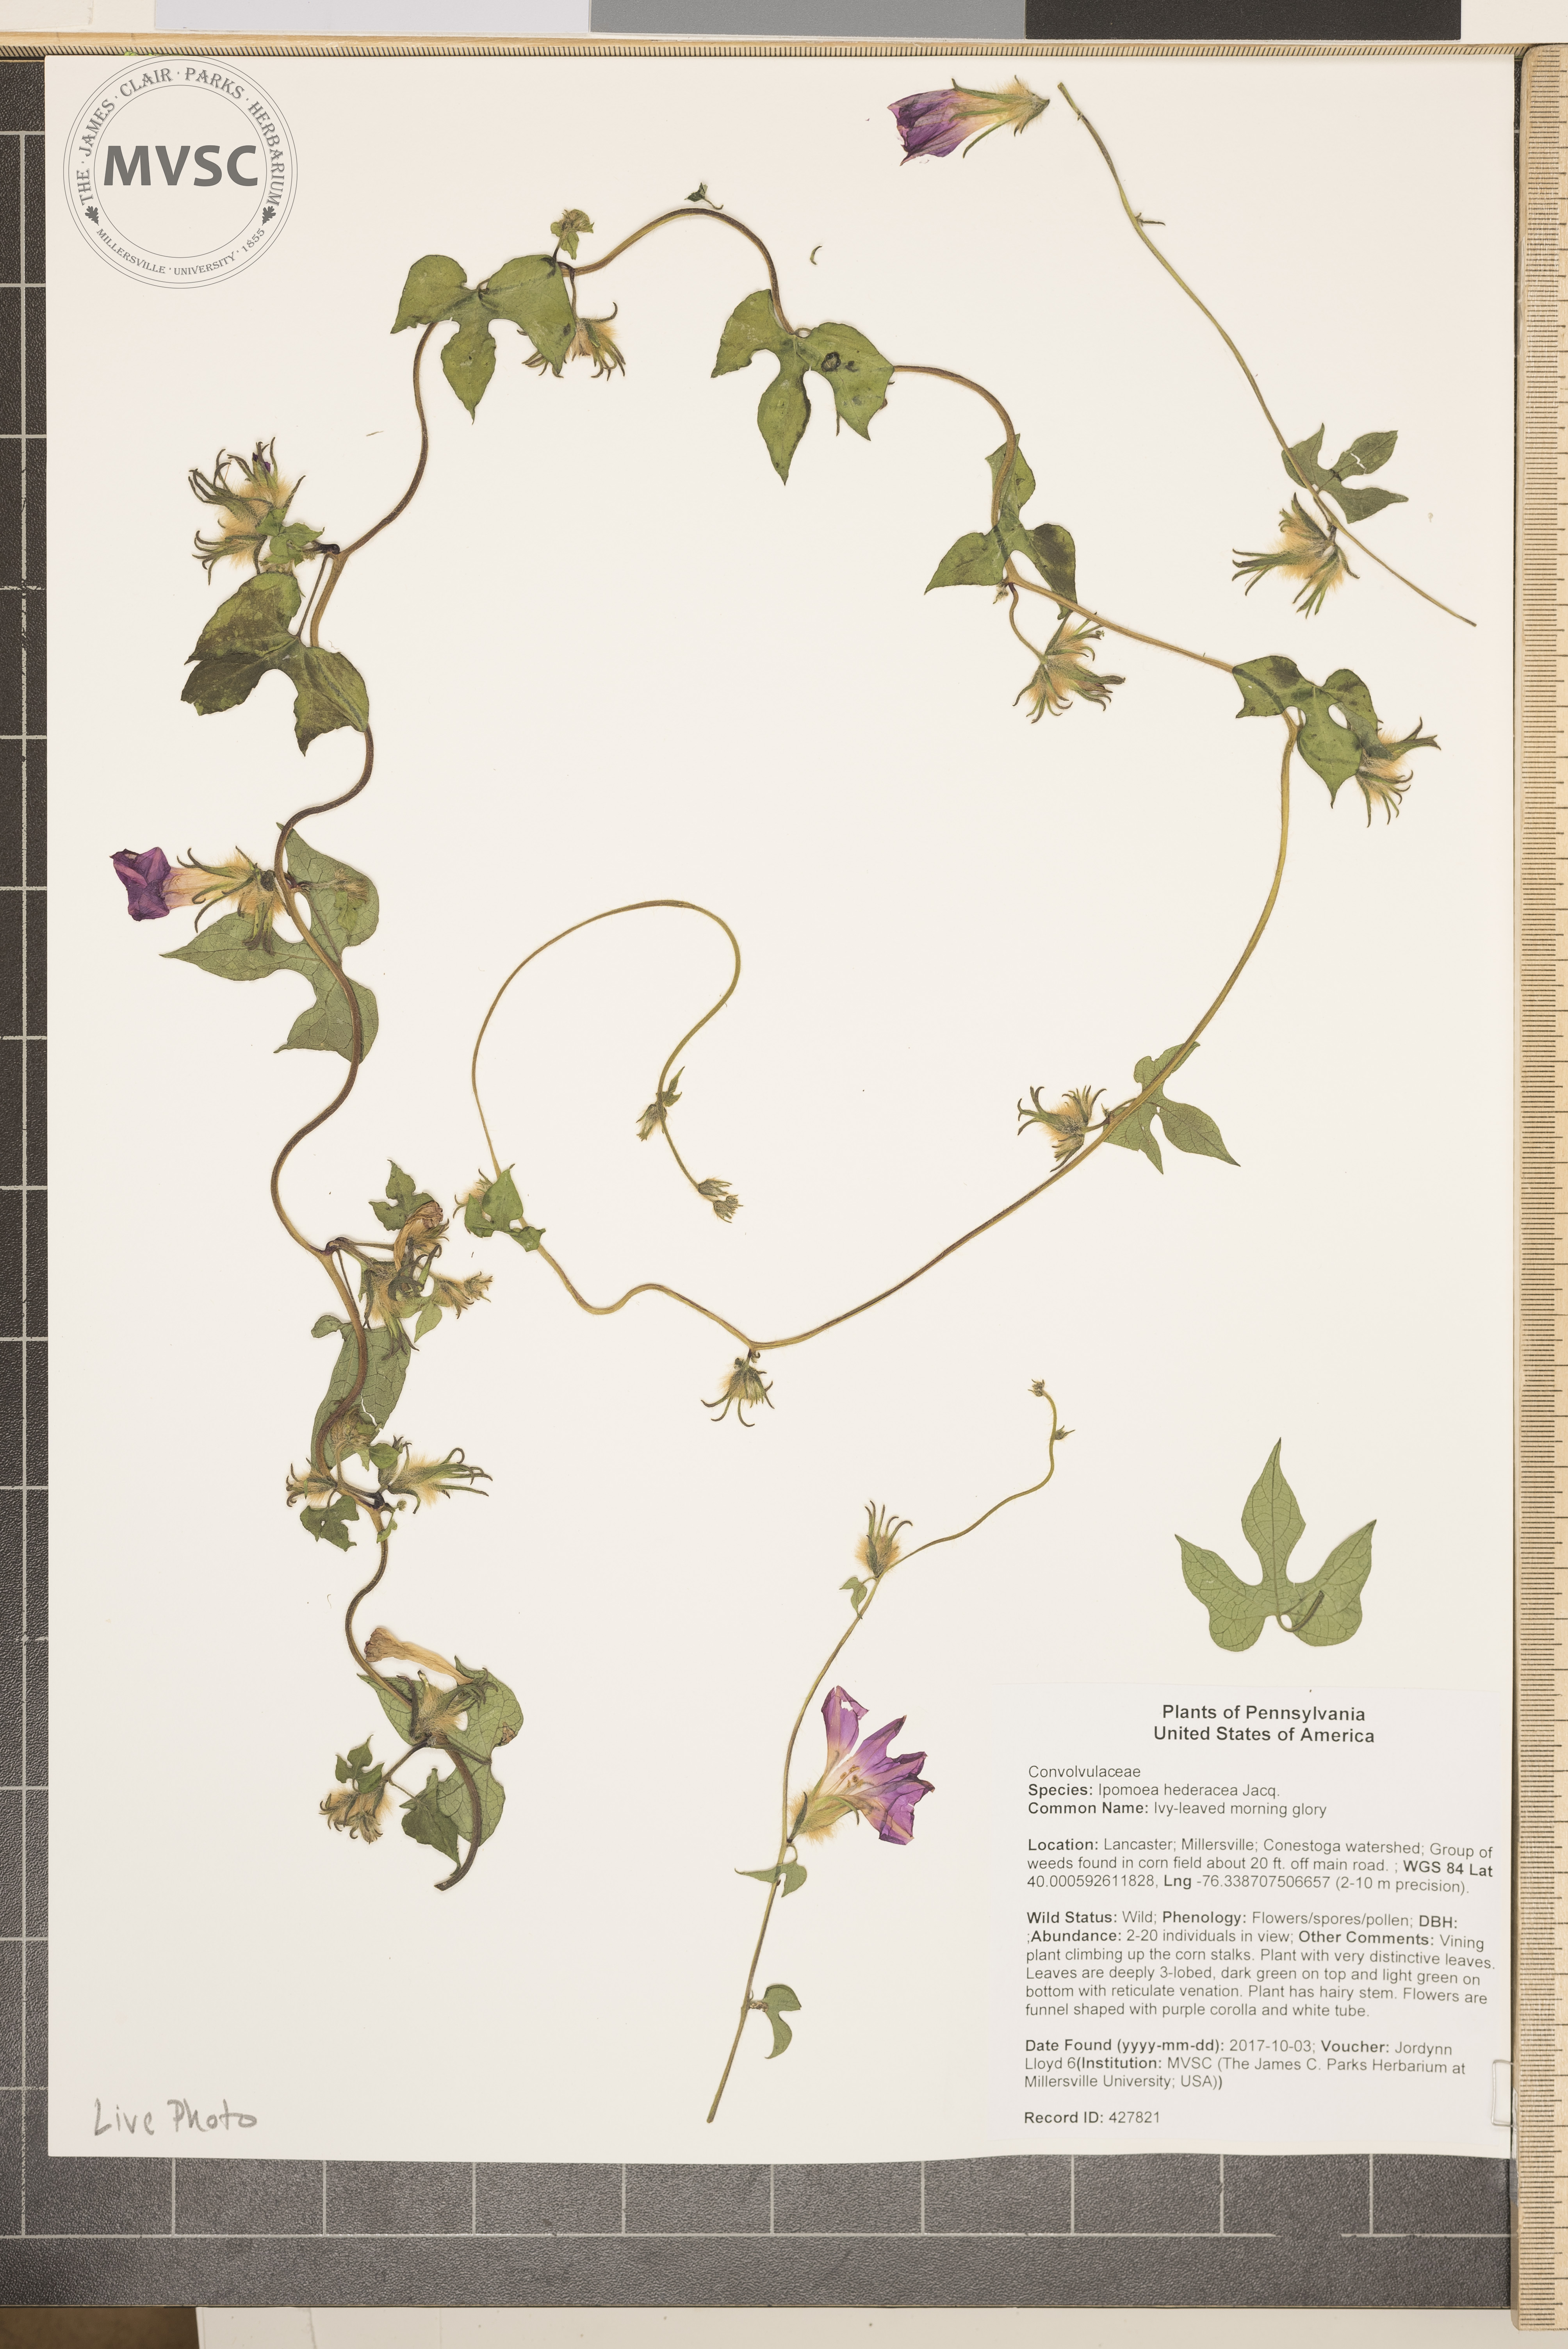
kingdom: Plantae
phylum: Tracheophyta
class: Magnoliopsida
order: Solanales
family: Convolvulaceae
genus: Ipomoea
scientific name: Ipomoea hederacea
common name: Ivy-leaved morning glory
